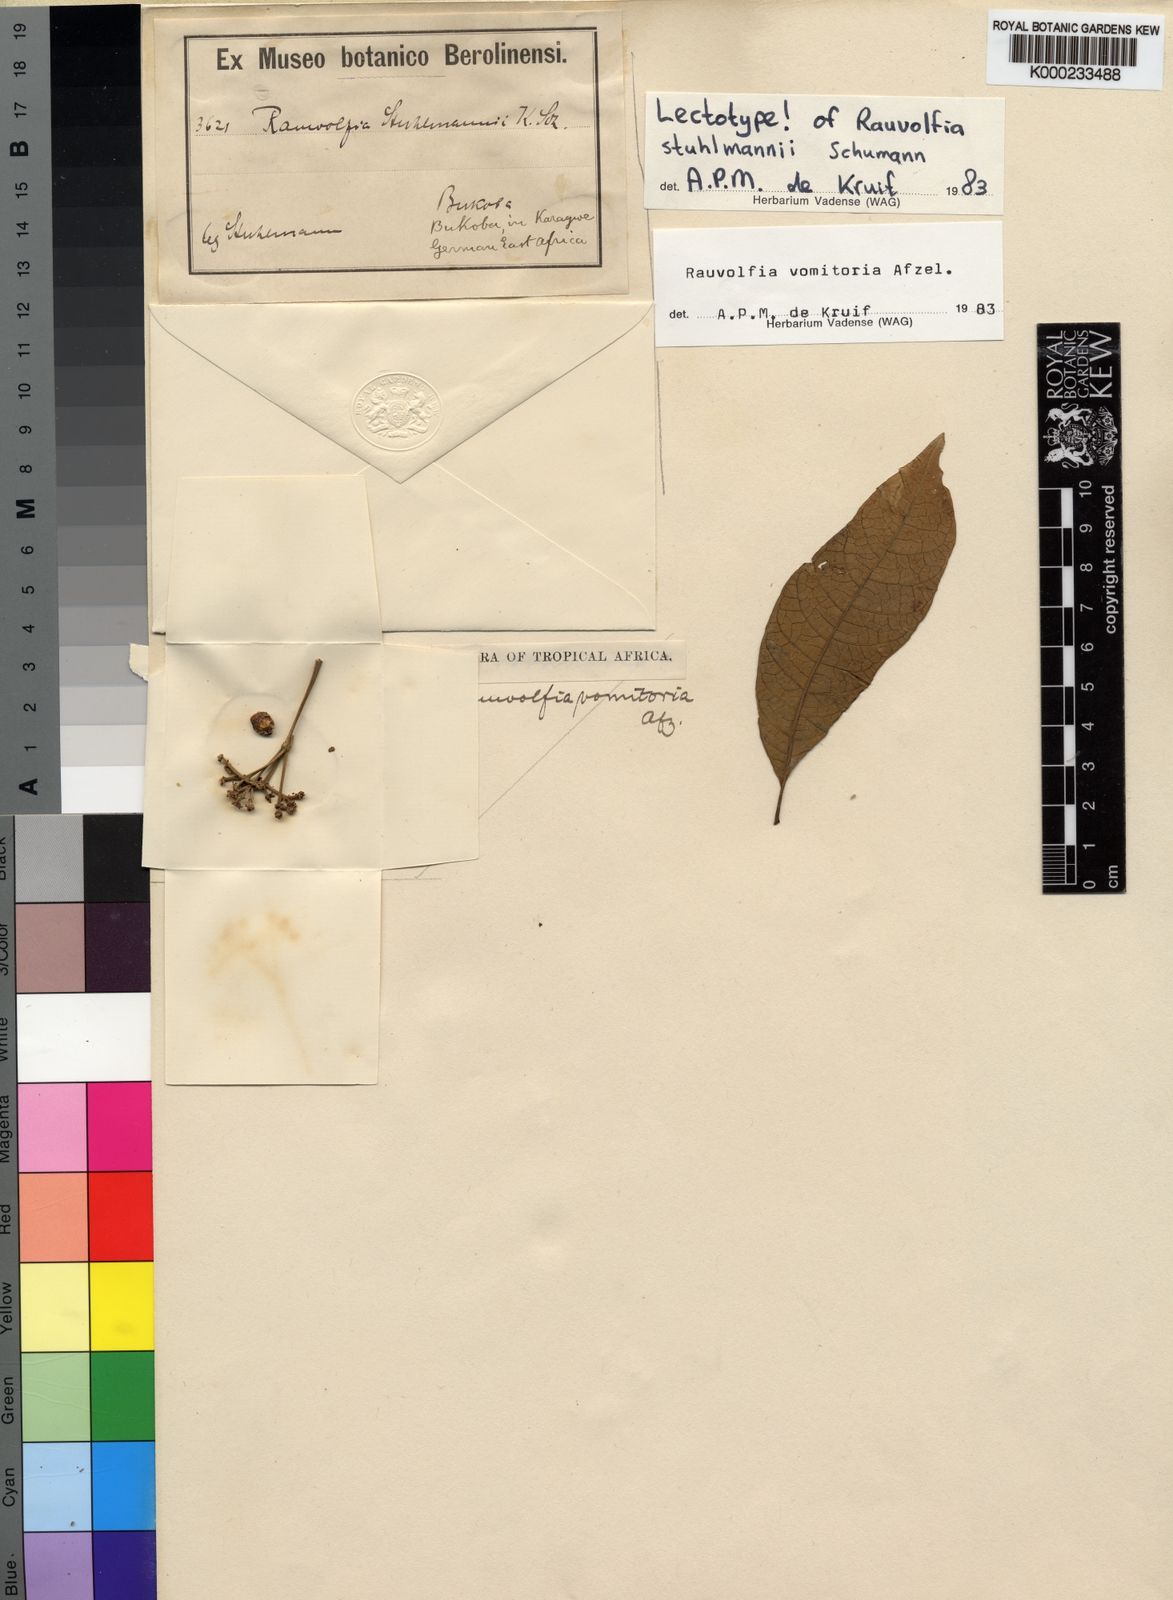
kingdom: Plantae
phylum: Tracheophyta
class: Magnoliopsida
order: Gentianales
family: Apocynaceae
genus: Rauvolfia
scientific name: Rauvolfia
